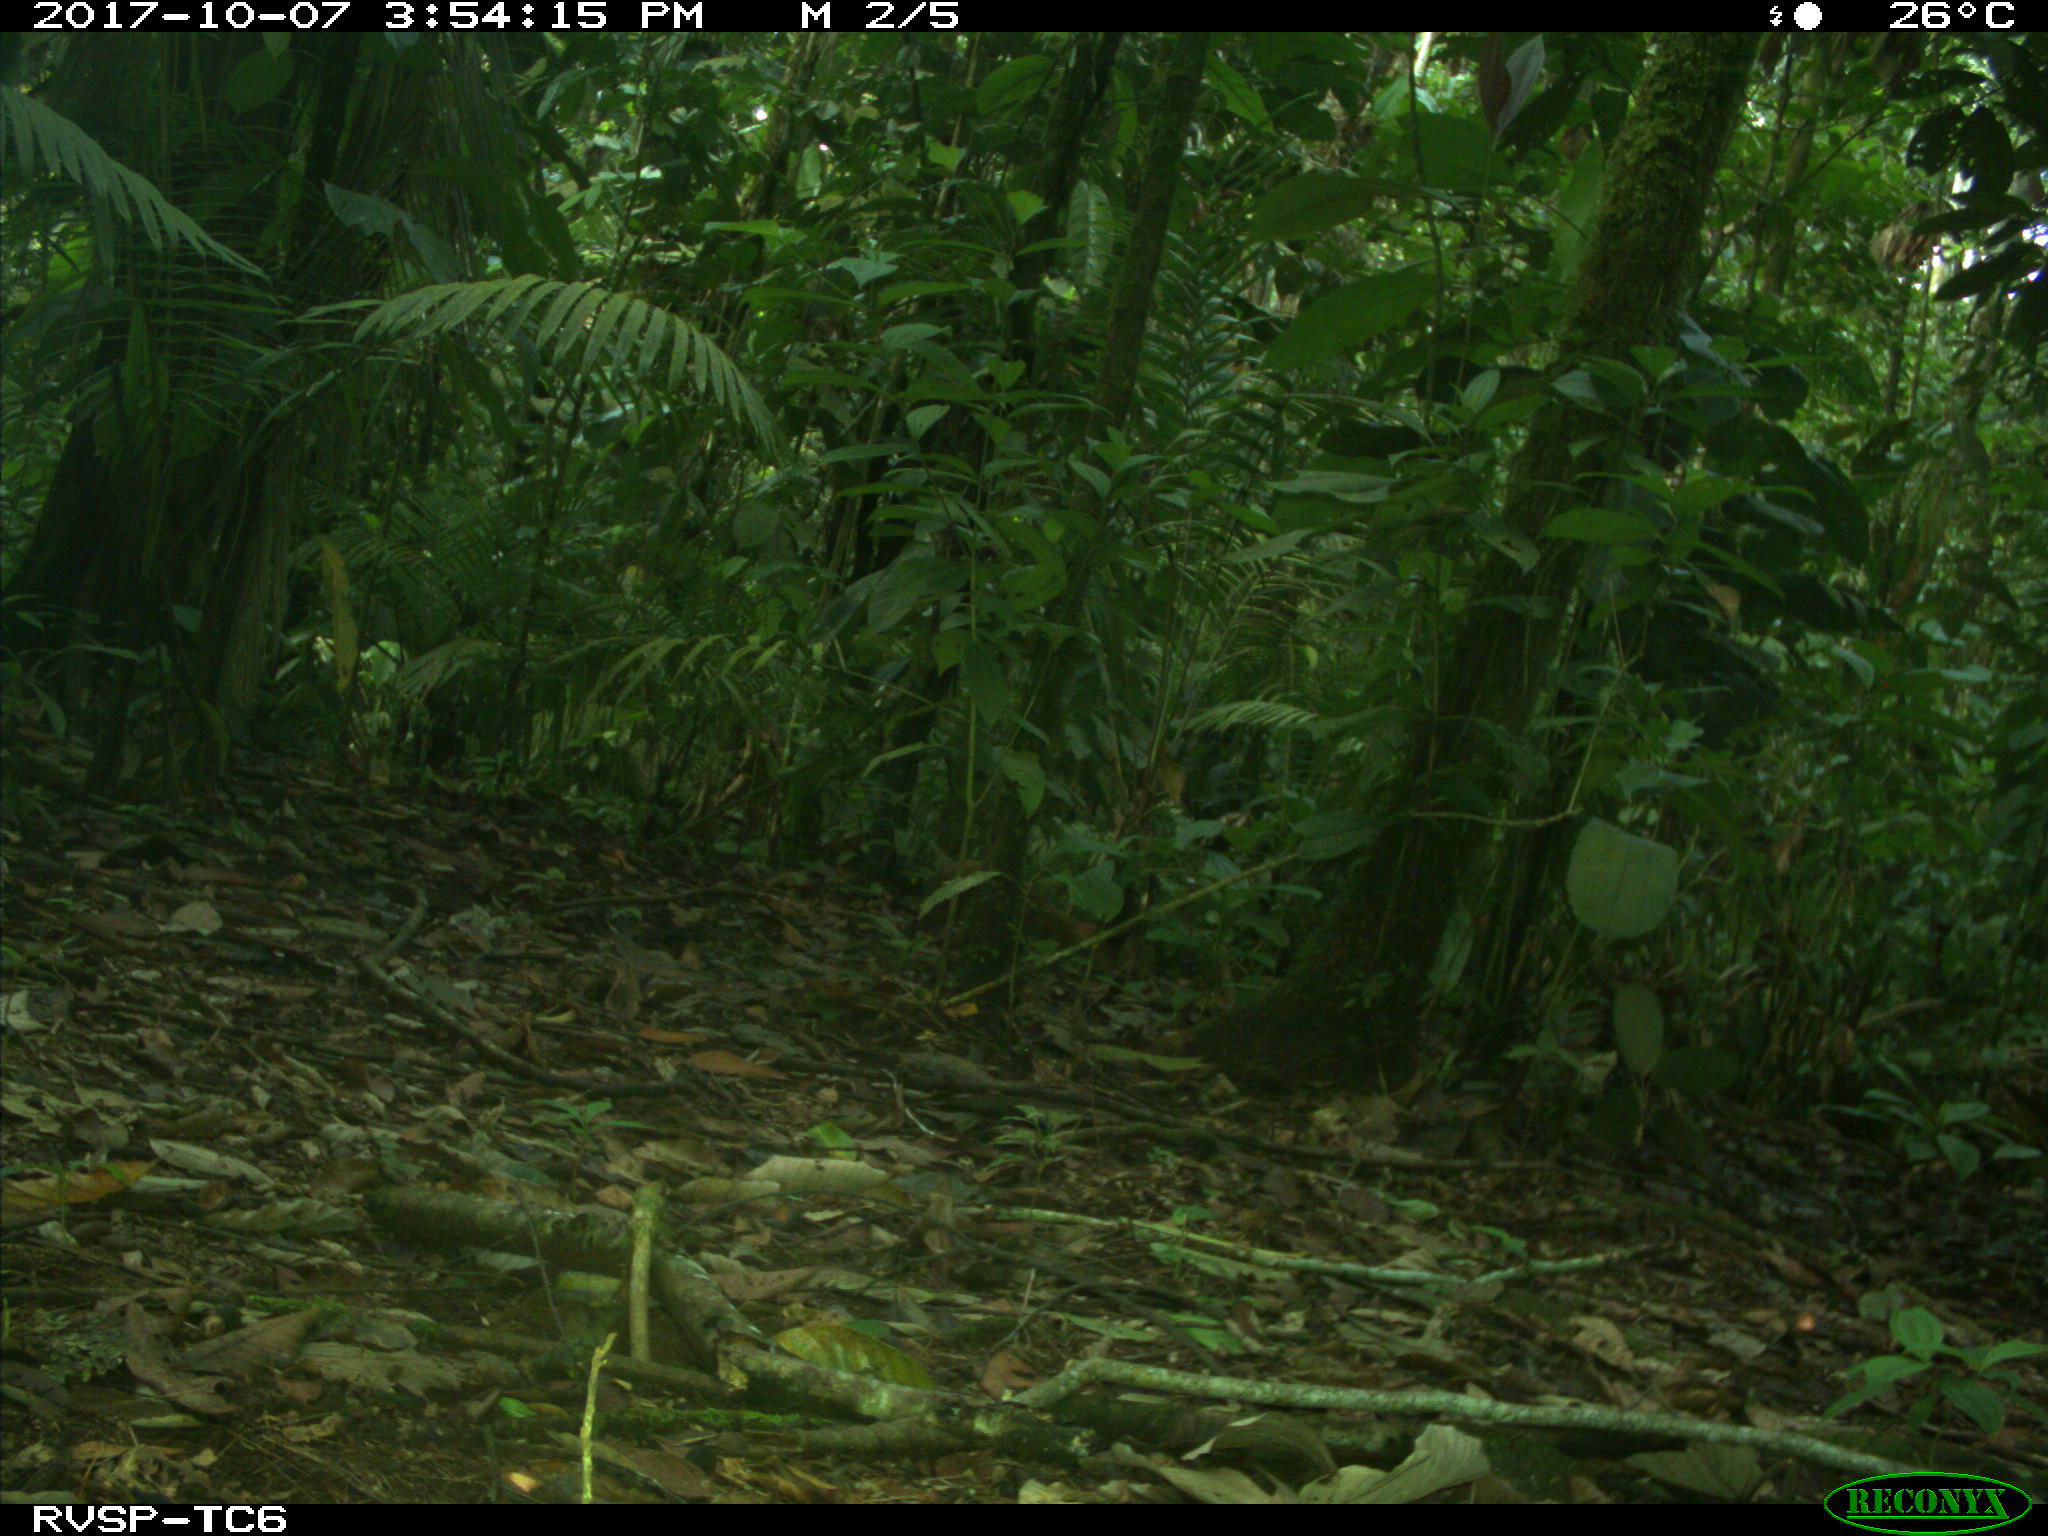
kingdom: Animalia
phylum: Chordata
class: Mammalia
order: Rodentia
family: Dasyproctidae
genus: Dasyprocta
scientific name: Dasyprocta punctata
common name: Central american agouti
